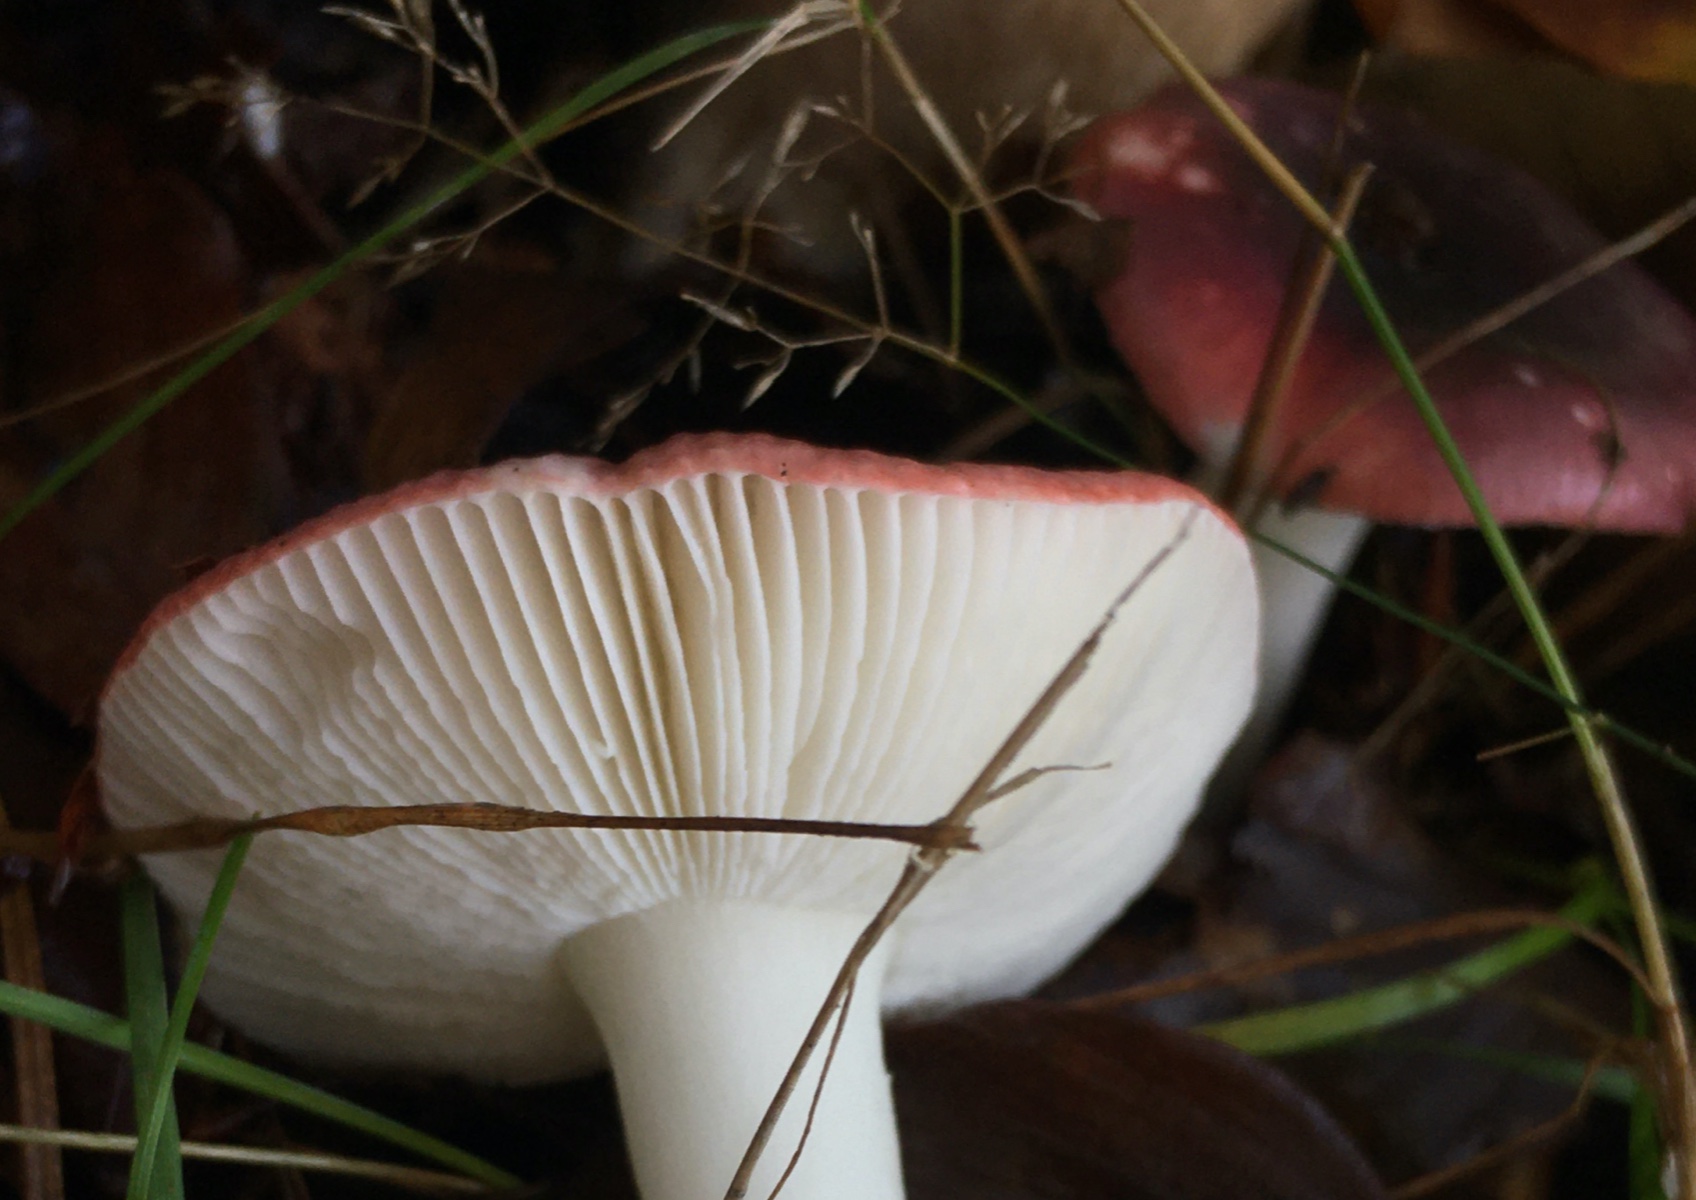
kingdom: Fungi
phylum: Basidiomycota
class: Agaricomycetes
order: Russulales
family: Russulaceae
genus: Russula
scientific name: Russula fragilis
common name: savbladet skørhat
